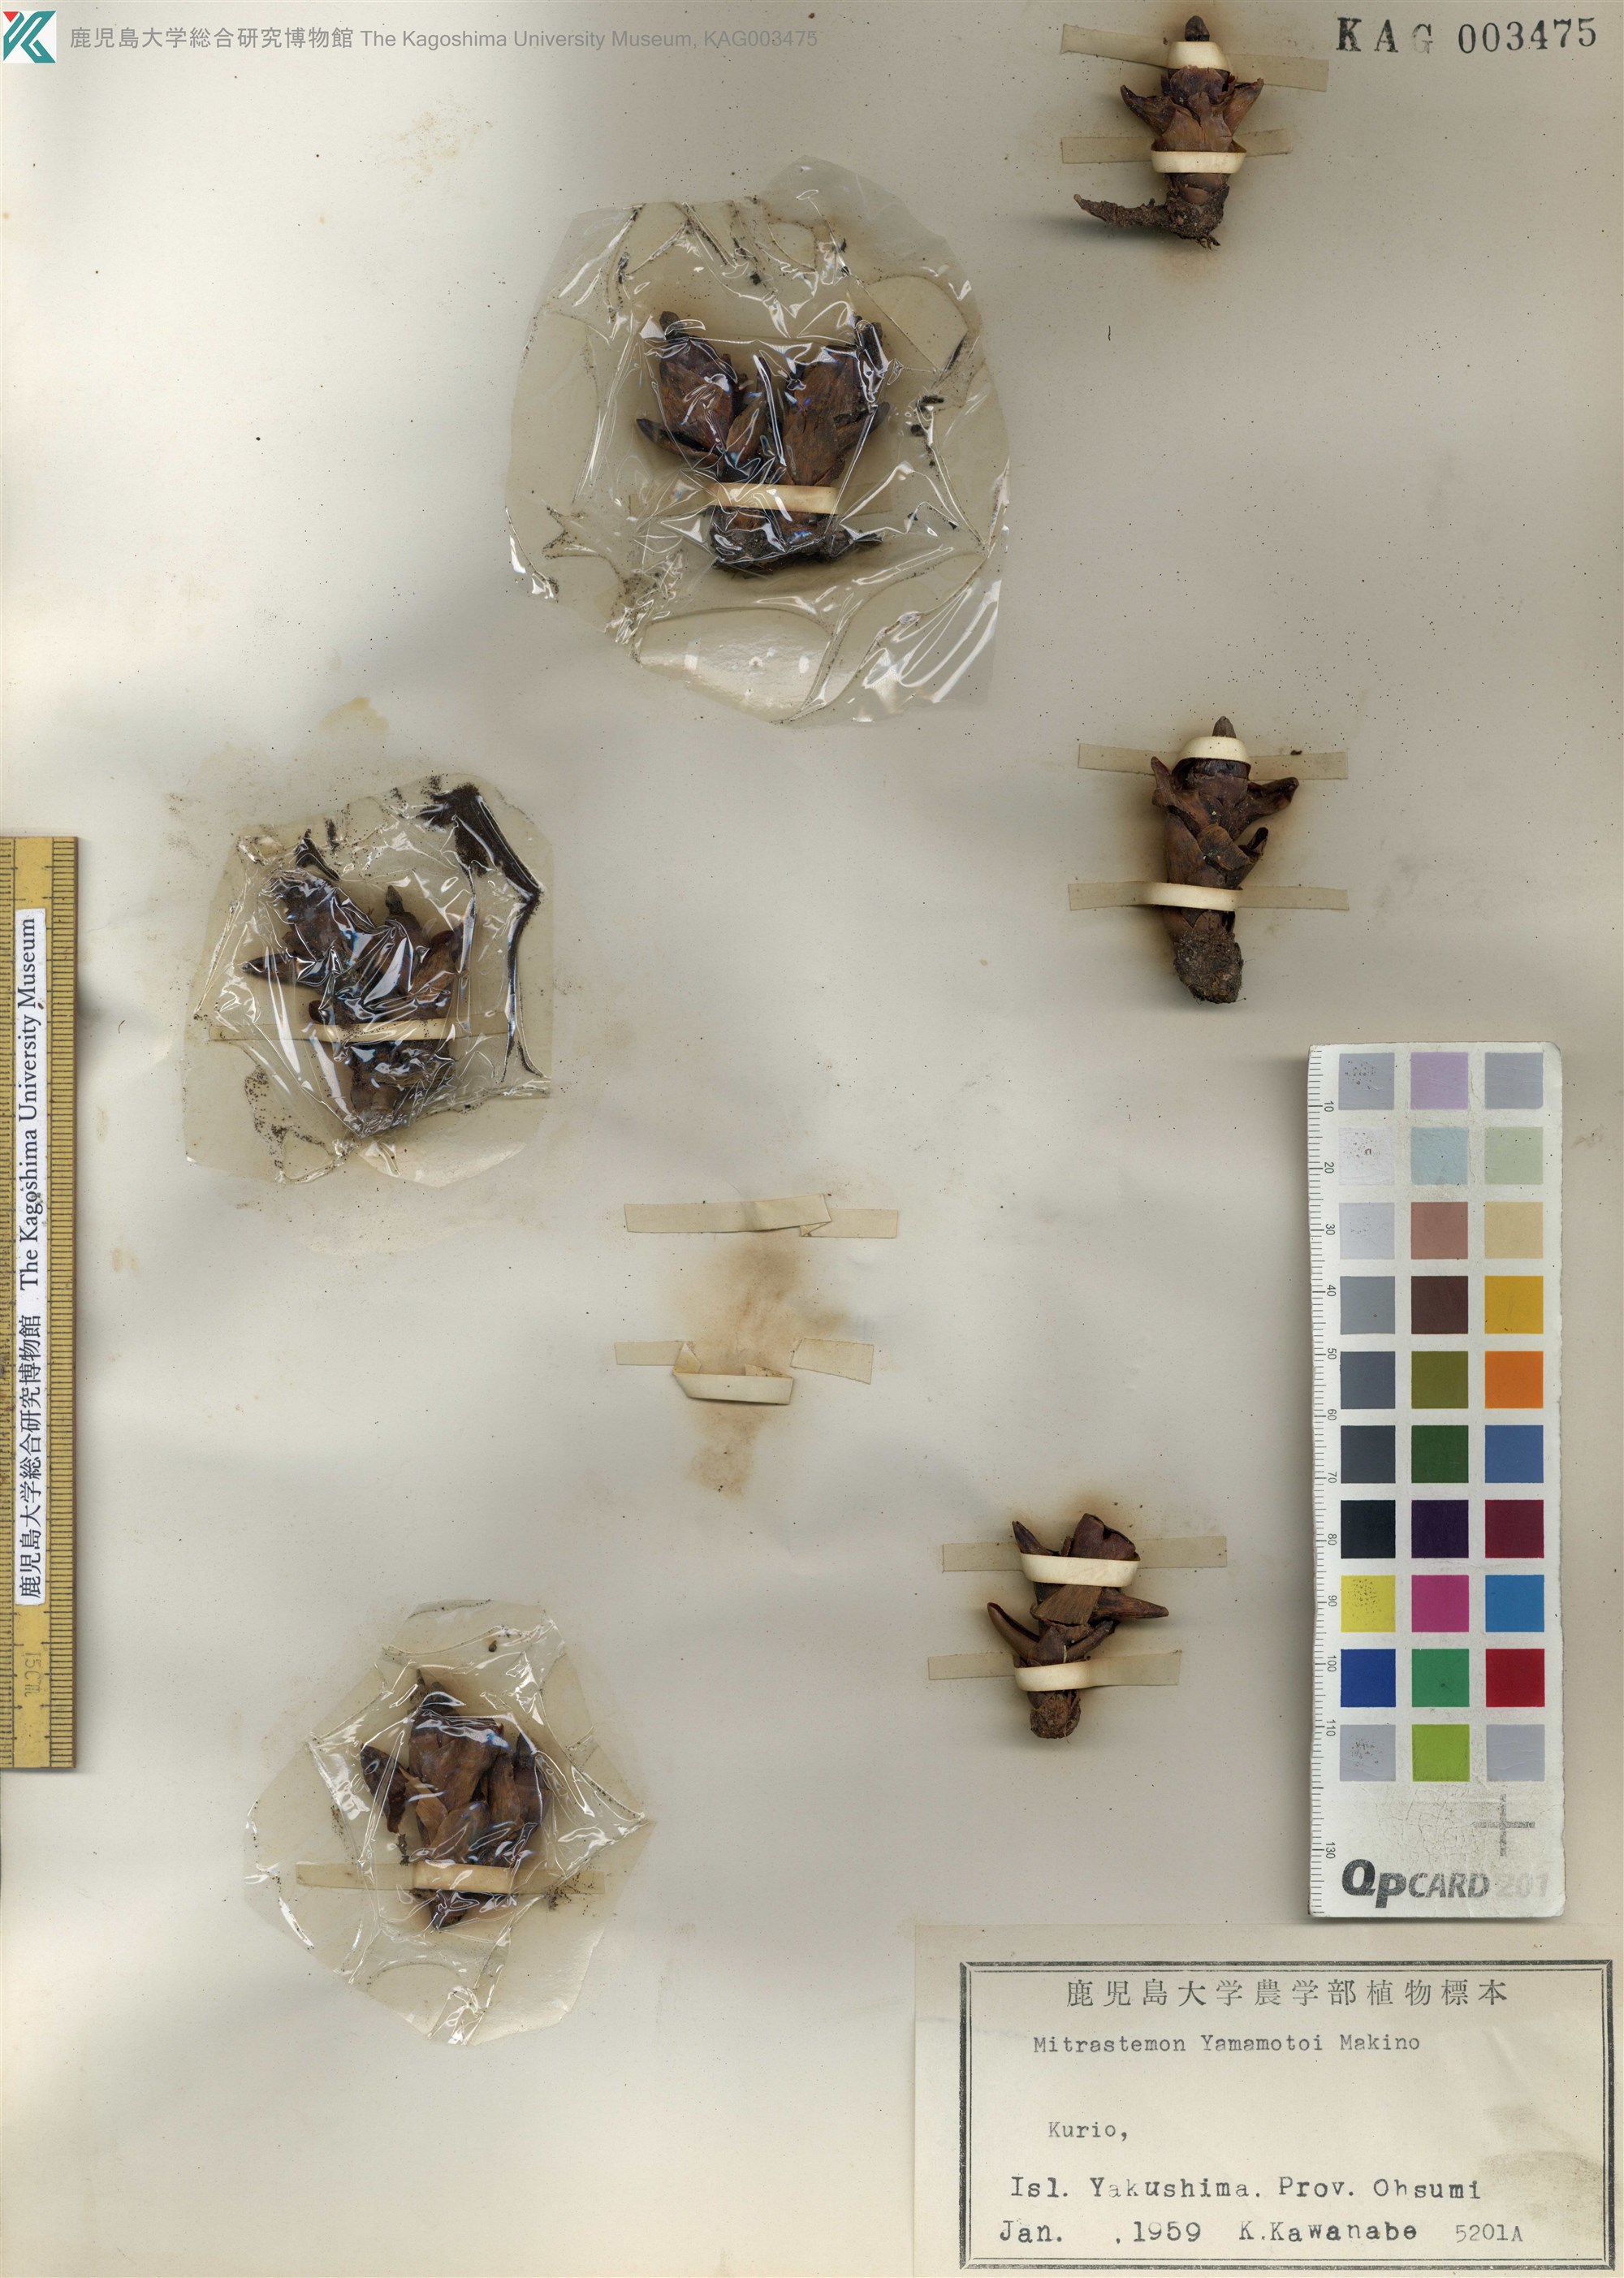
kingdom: Plantae
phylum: Tracheophyta
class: Magnoliopsida
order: Ericales
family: Mitrastemonaceae
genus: Mitrastemon
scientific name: Mitrastemon yamamotoi
